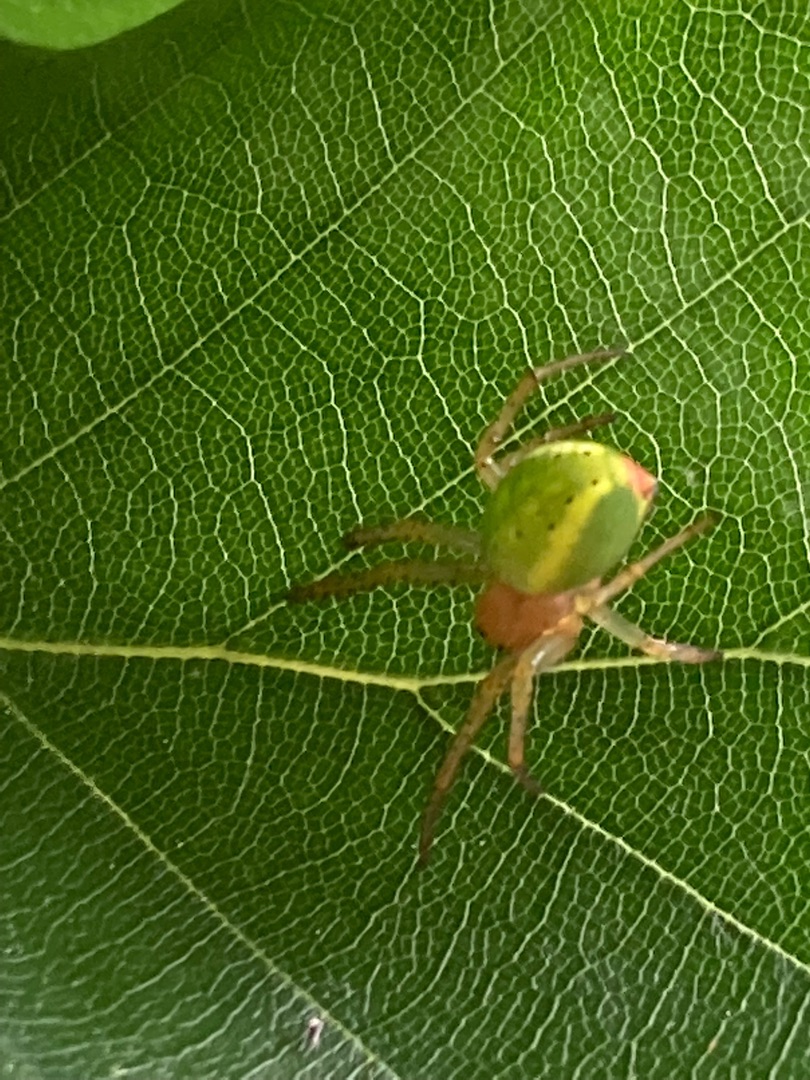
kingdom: Animalia
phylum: Arthropoda
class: Arachnida
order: Araneae
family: Araneidae
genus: Araniella
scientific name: Araniella
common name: Agurkeedderkopslægten
